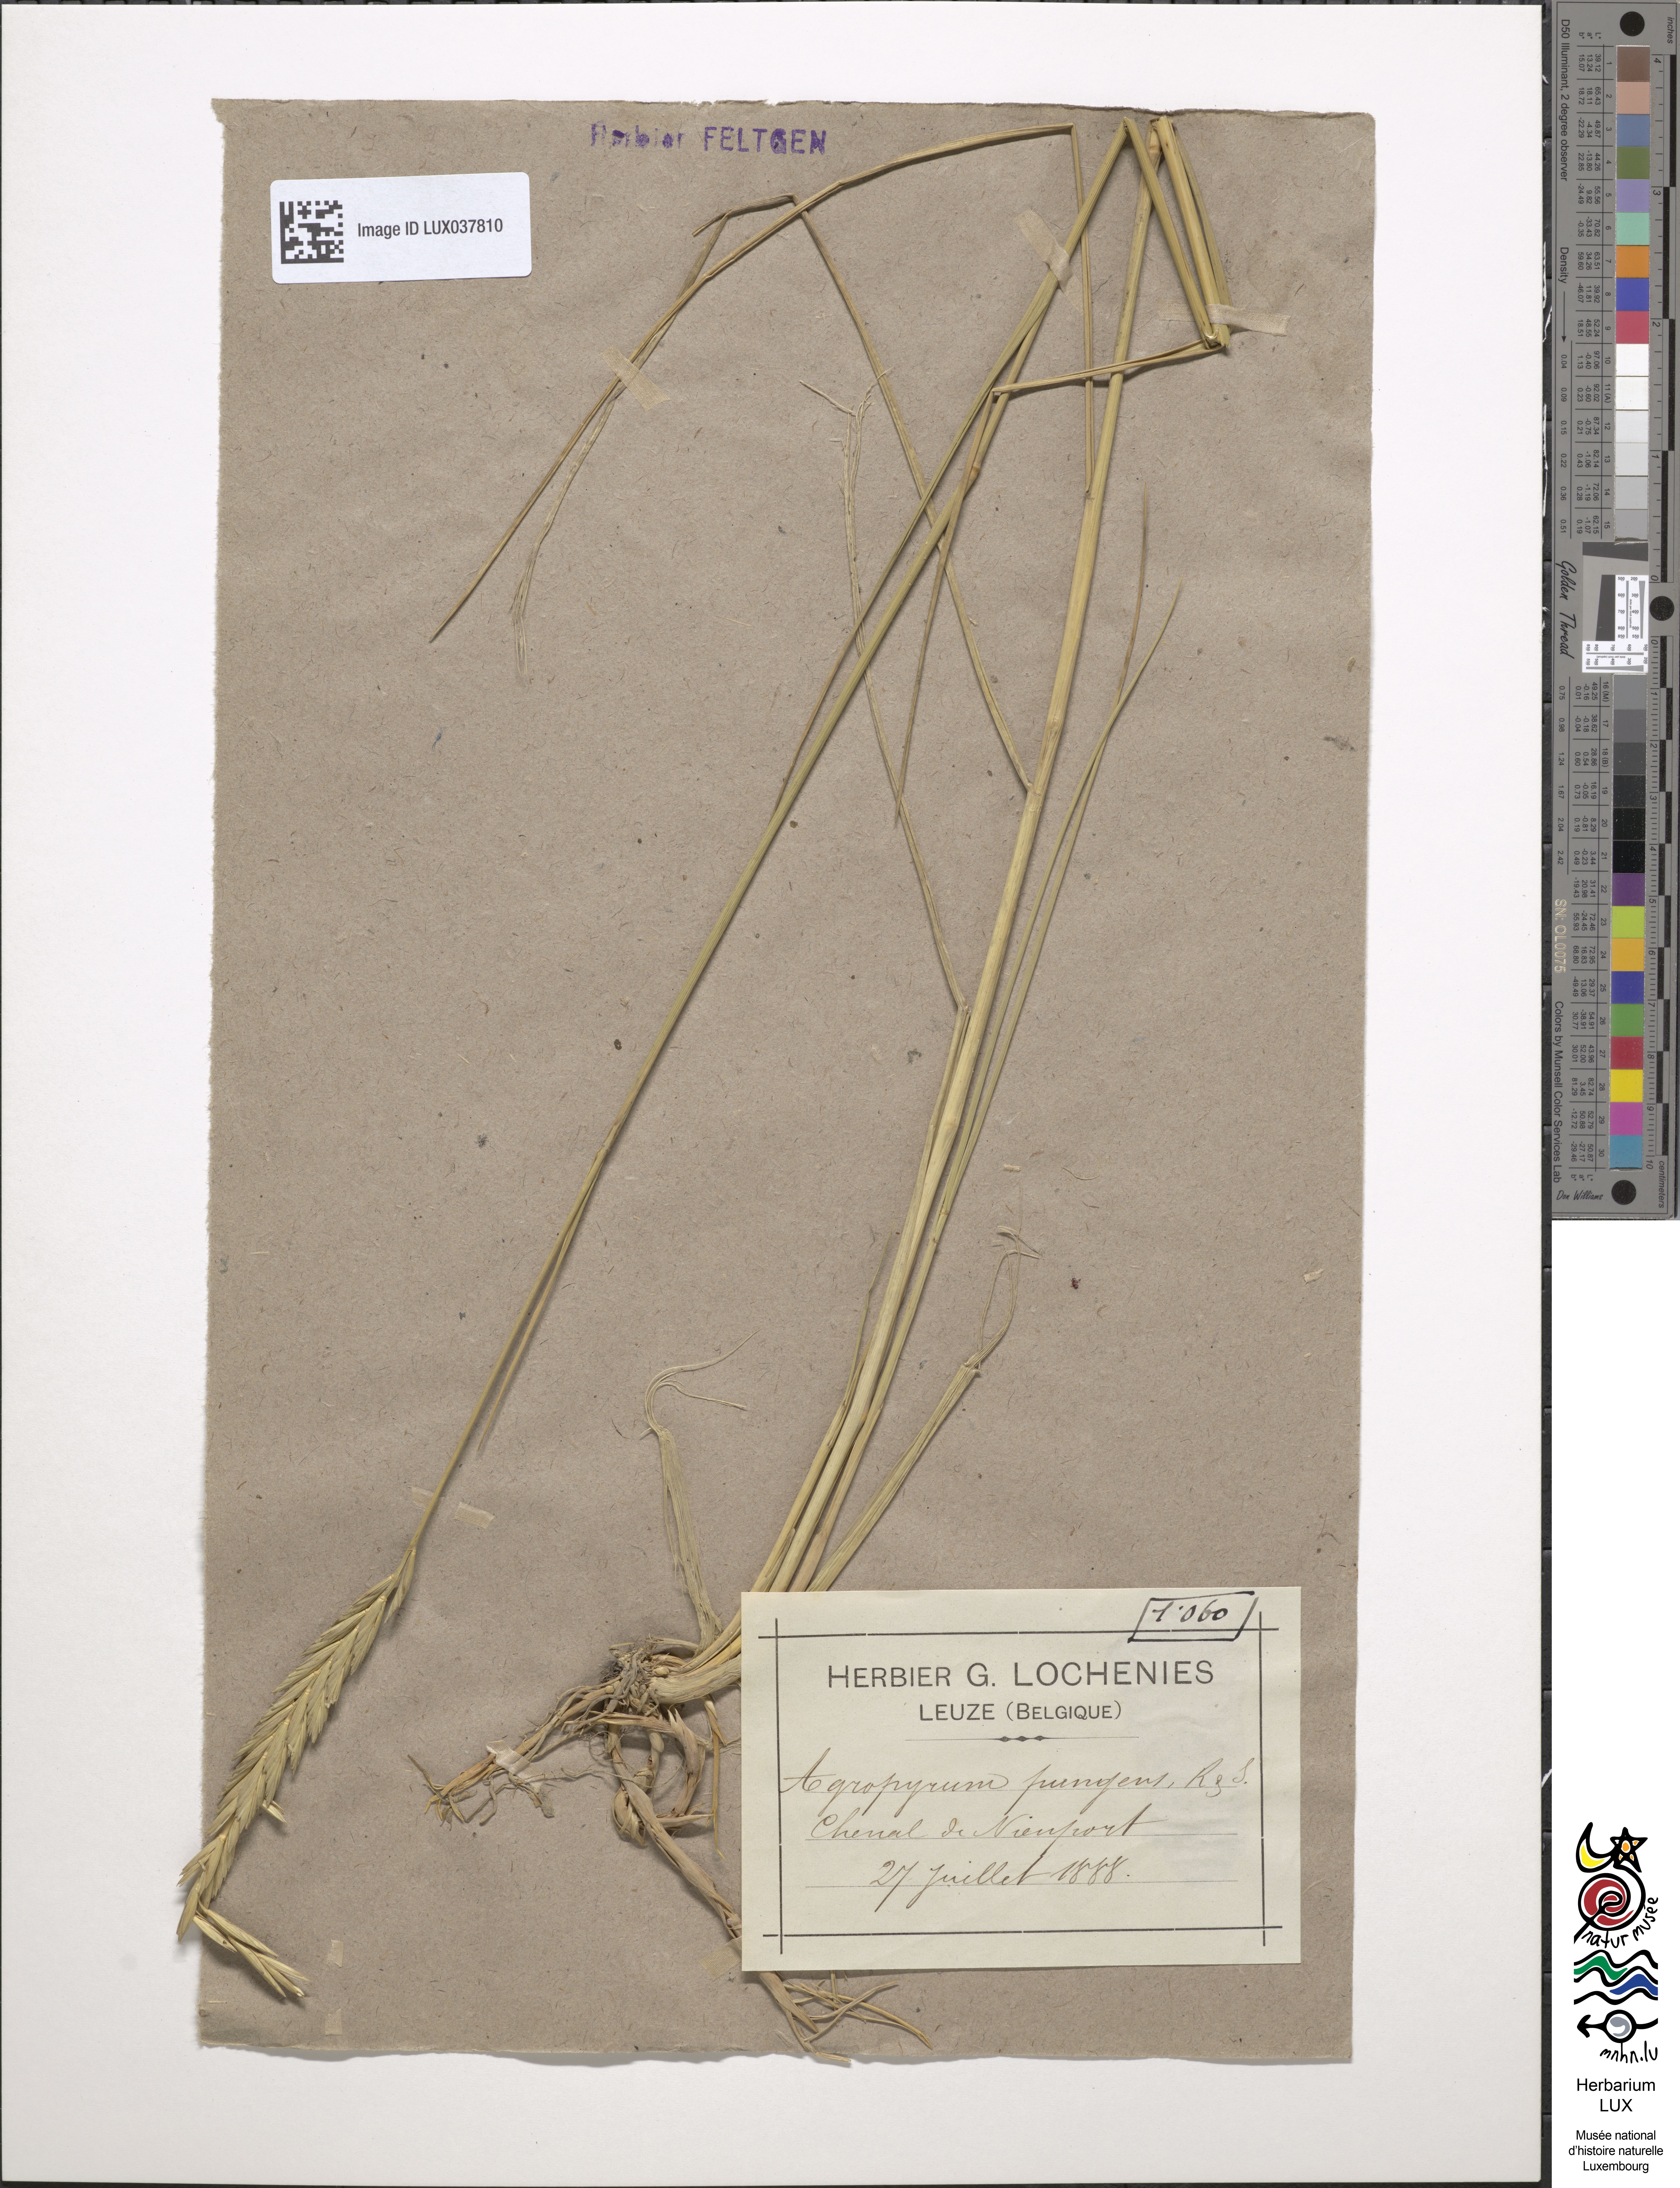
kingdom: Plantae
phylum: Tracheophyta
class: Liliopsida
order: Poales
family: Poaceae
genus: Elymus
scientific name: Elymus pungens
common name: Sea couch
